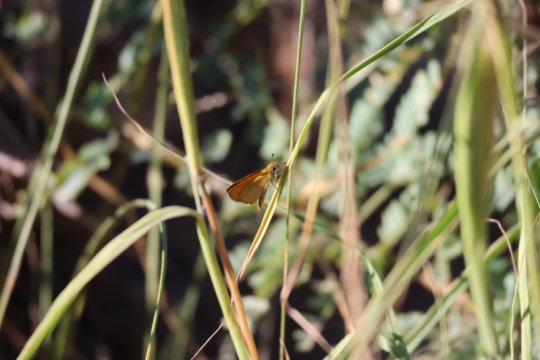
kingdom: Animalia
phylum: Arthropoda
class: Insecta
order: Lepidoptera
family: Hesperiidae
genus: Ancyloxypha
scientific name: Ancyloxypha arene
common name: Tropical Least Skipper
